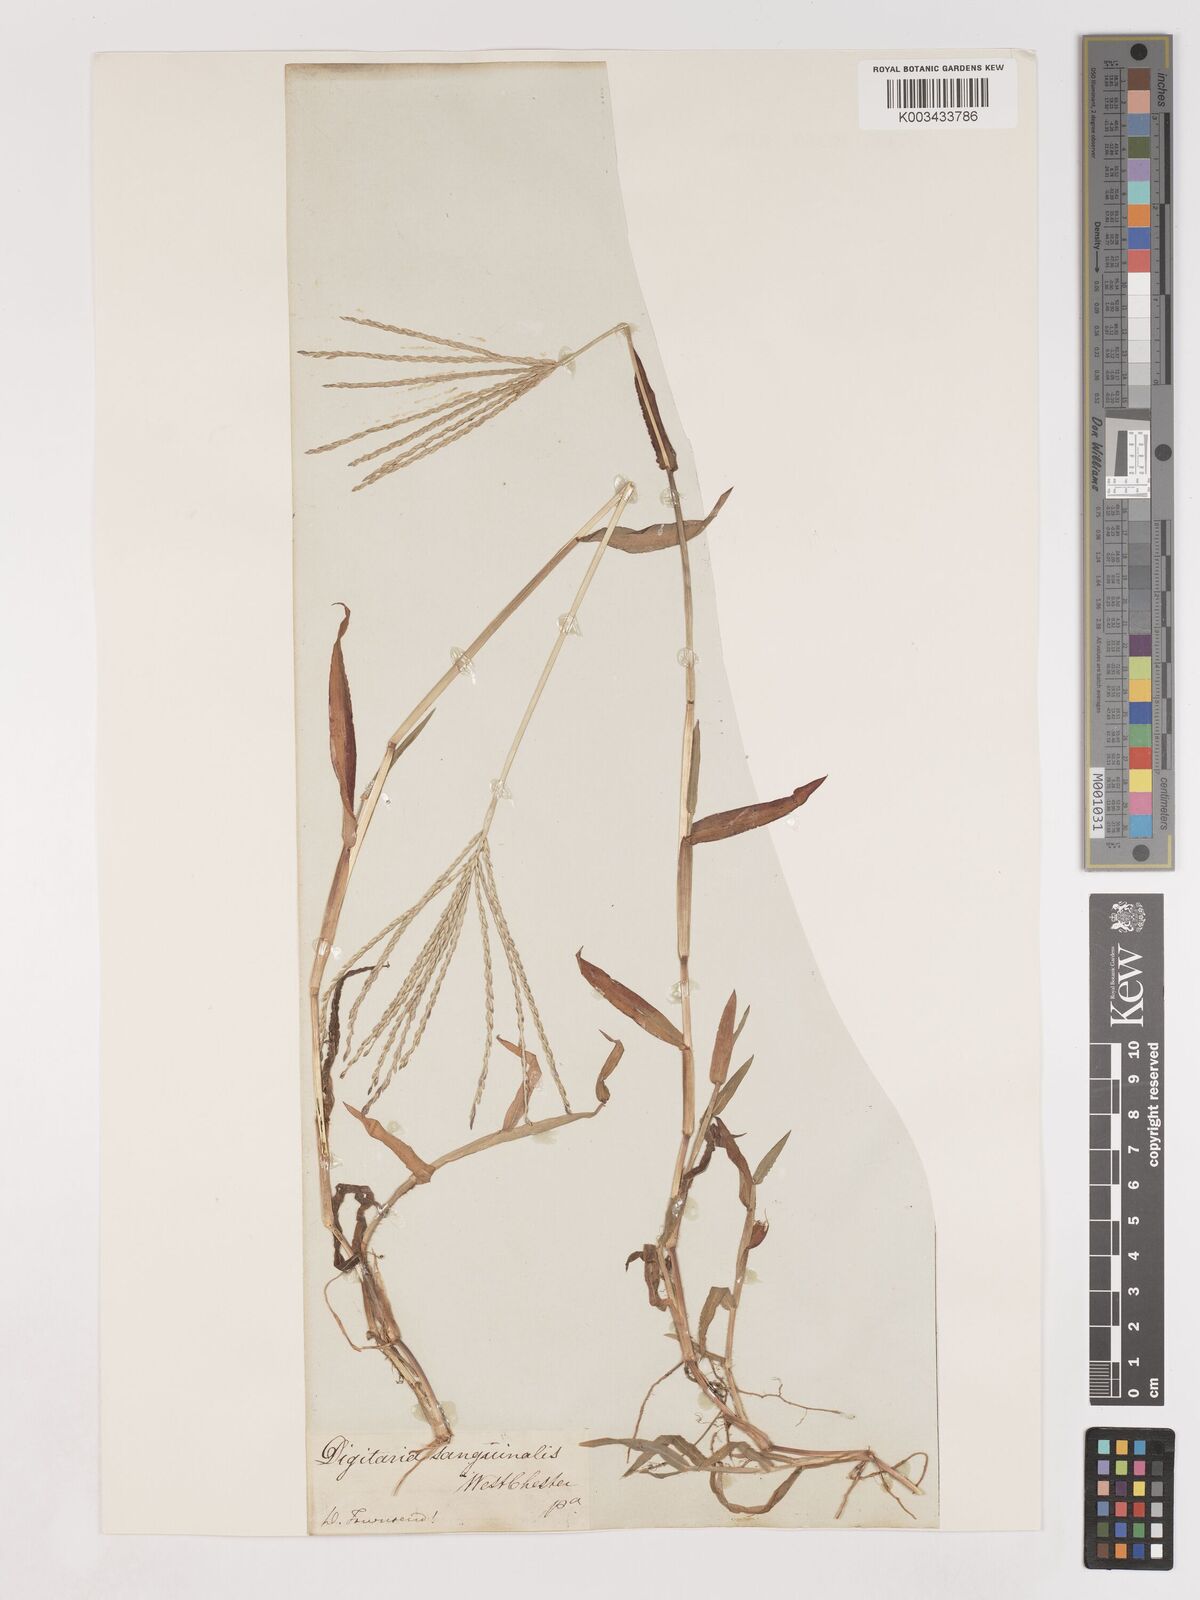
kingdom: Plantae
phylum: Tracheophyta
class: Liliopsida
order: Poales
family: Poaceae
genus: Digitaria
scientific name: Digitaria sanguinalis
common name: Hairy crabgrass
